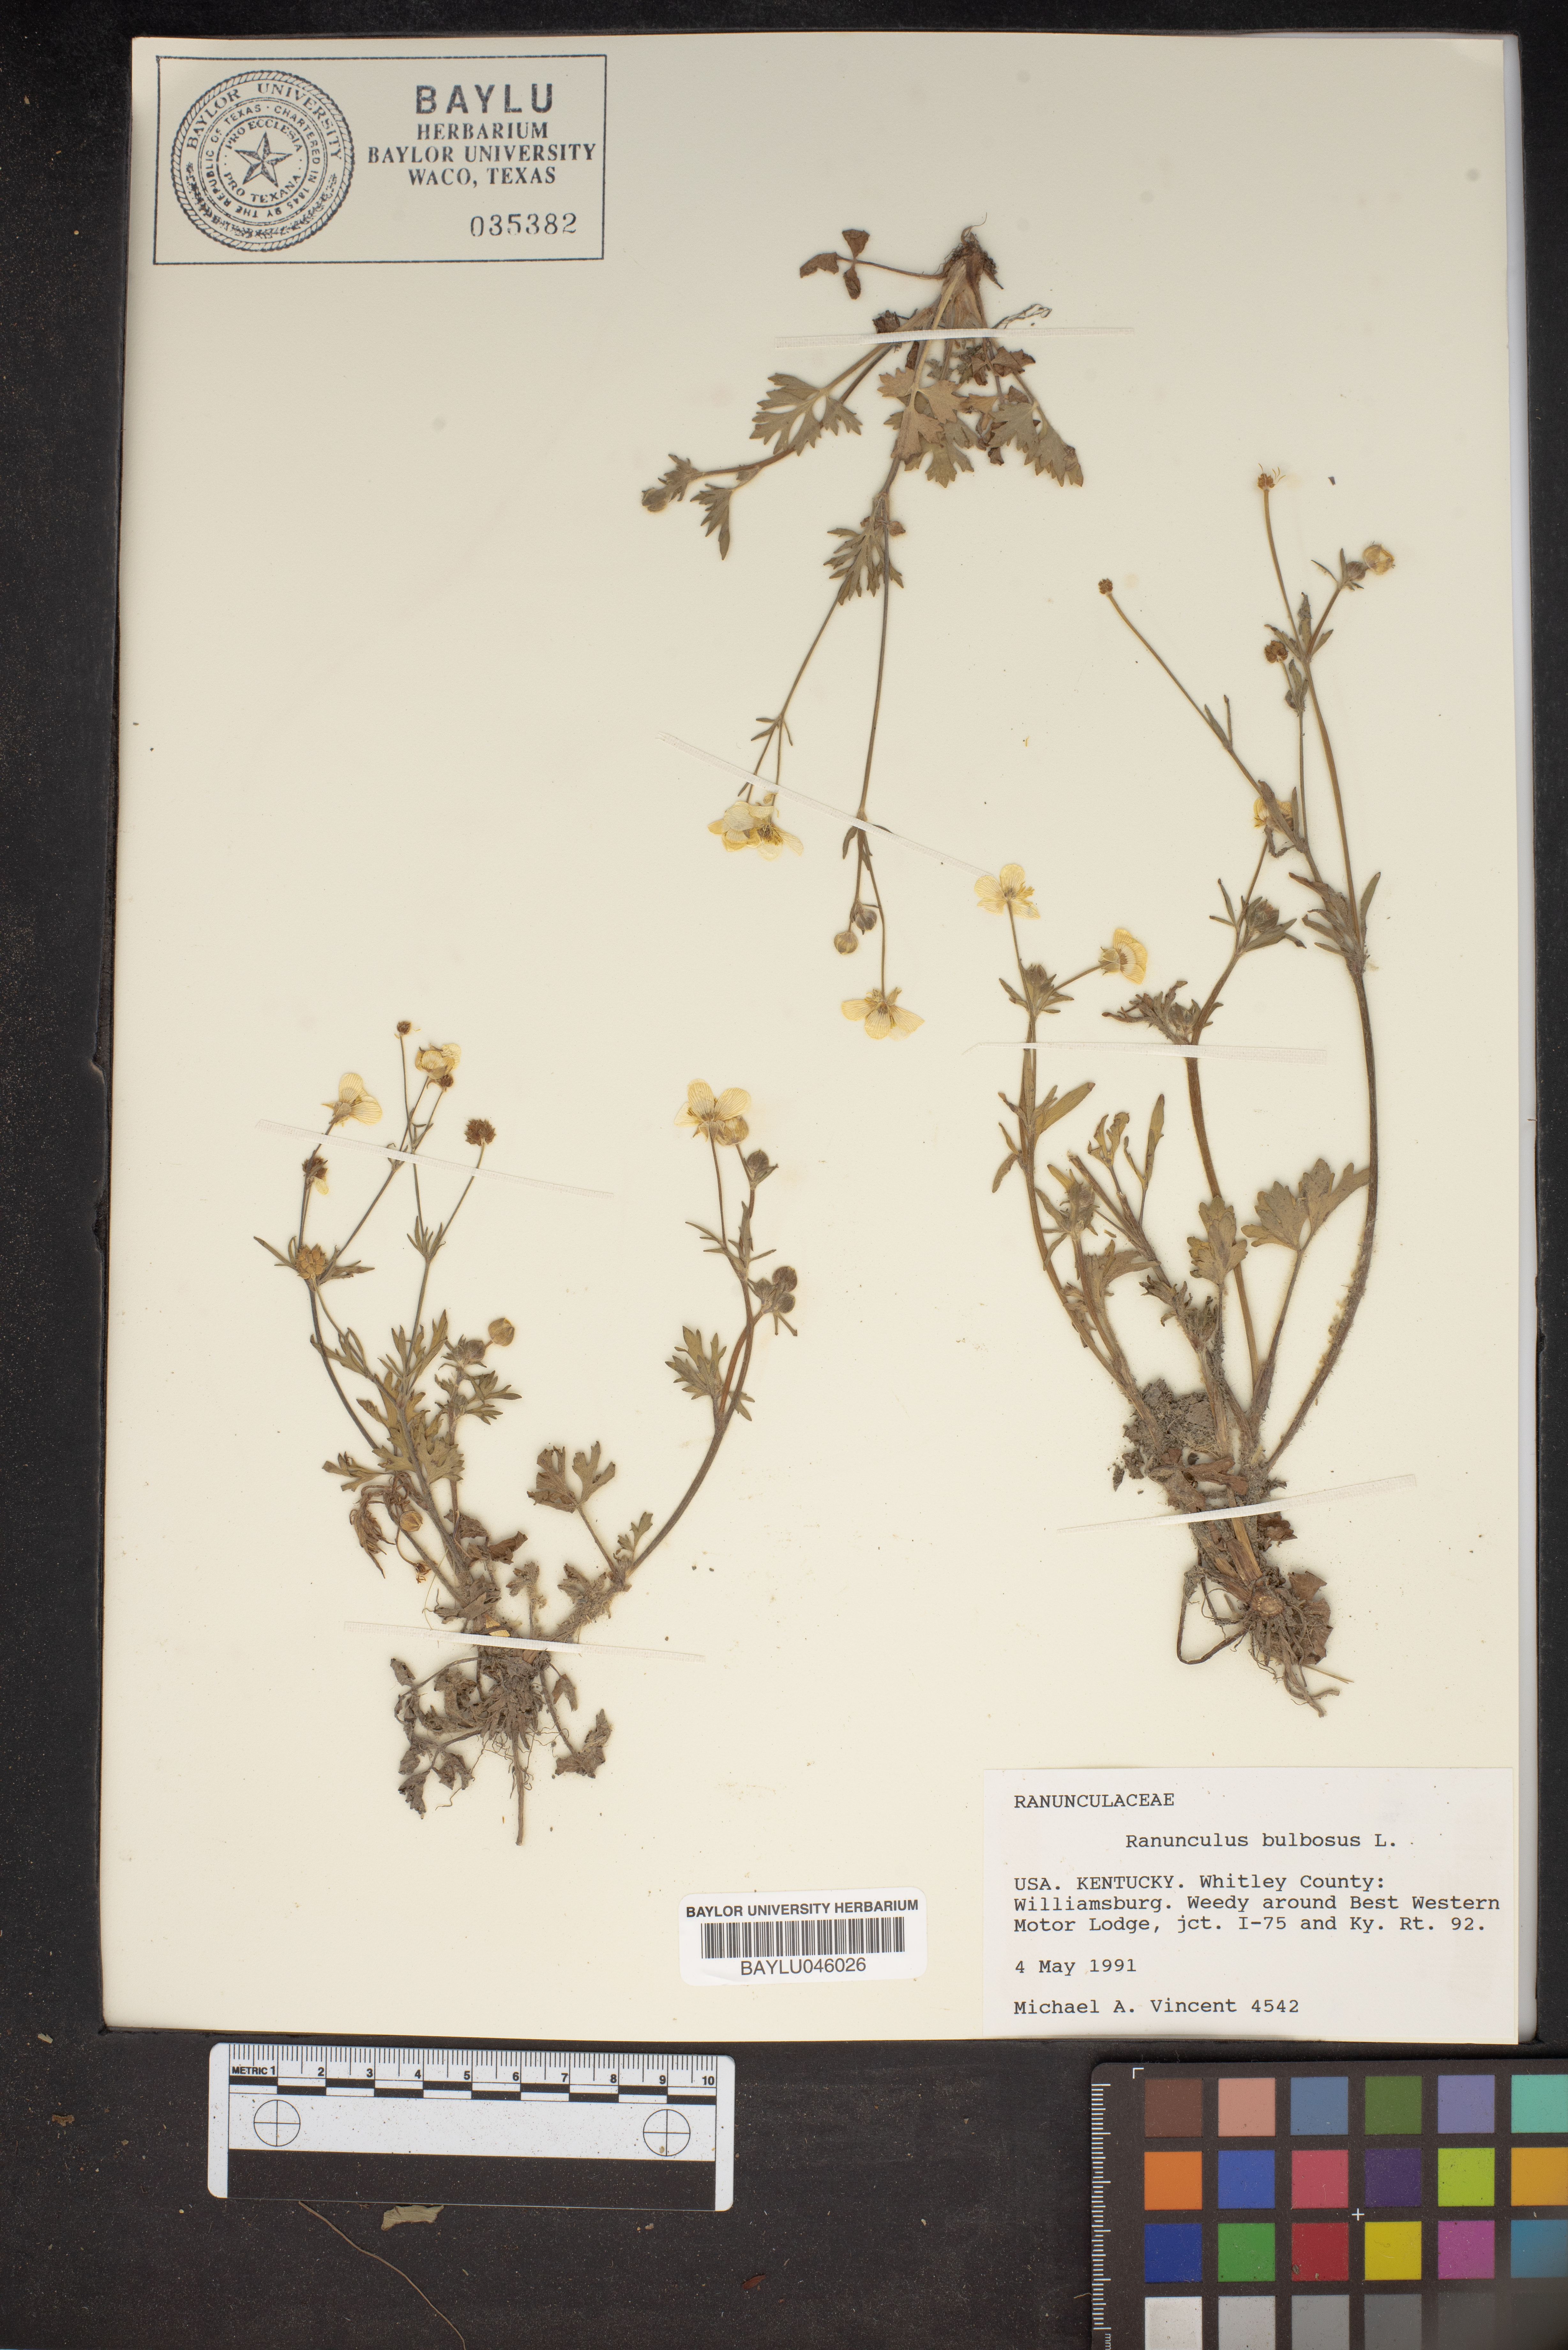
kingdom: Plantae
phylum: Tracheophyta
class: Magnoliopsida
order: Ranunculales
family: Ranunculaceae
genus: Ranunculus
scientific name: Ranunculus bulbosus
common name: Bulbous buttercup
